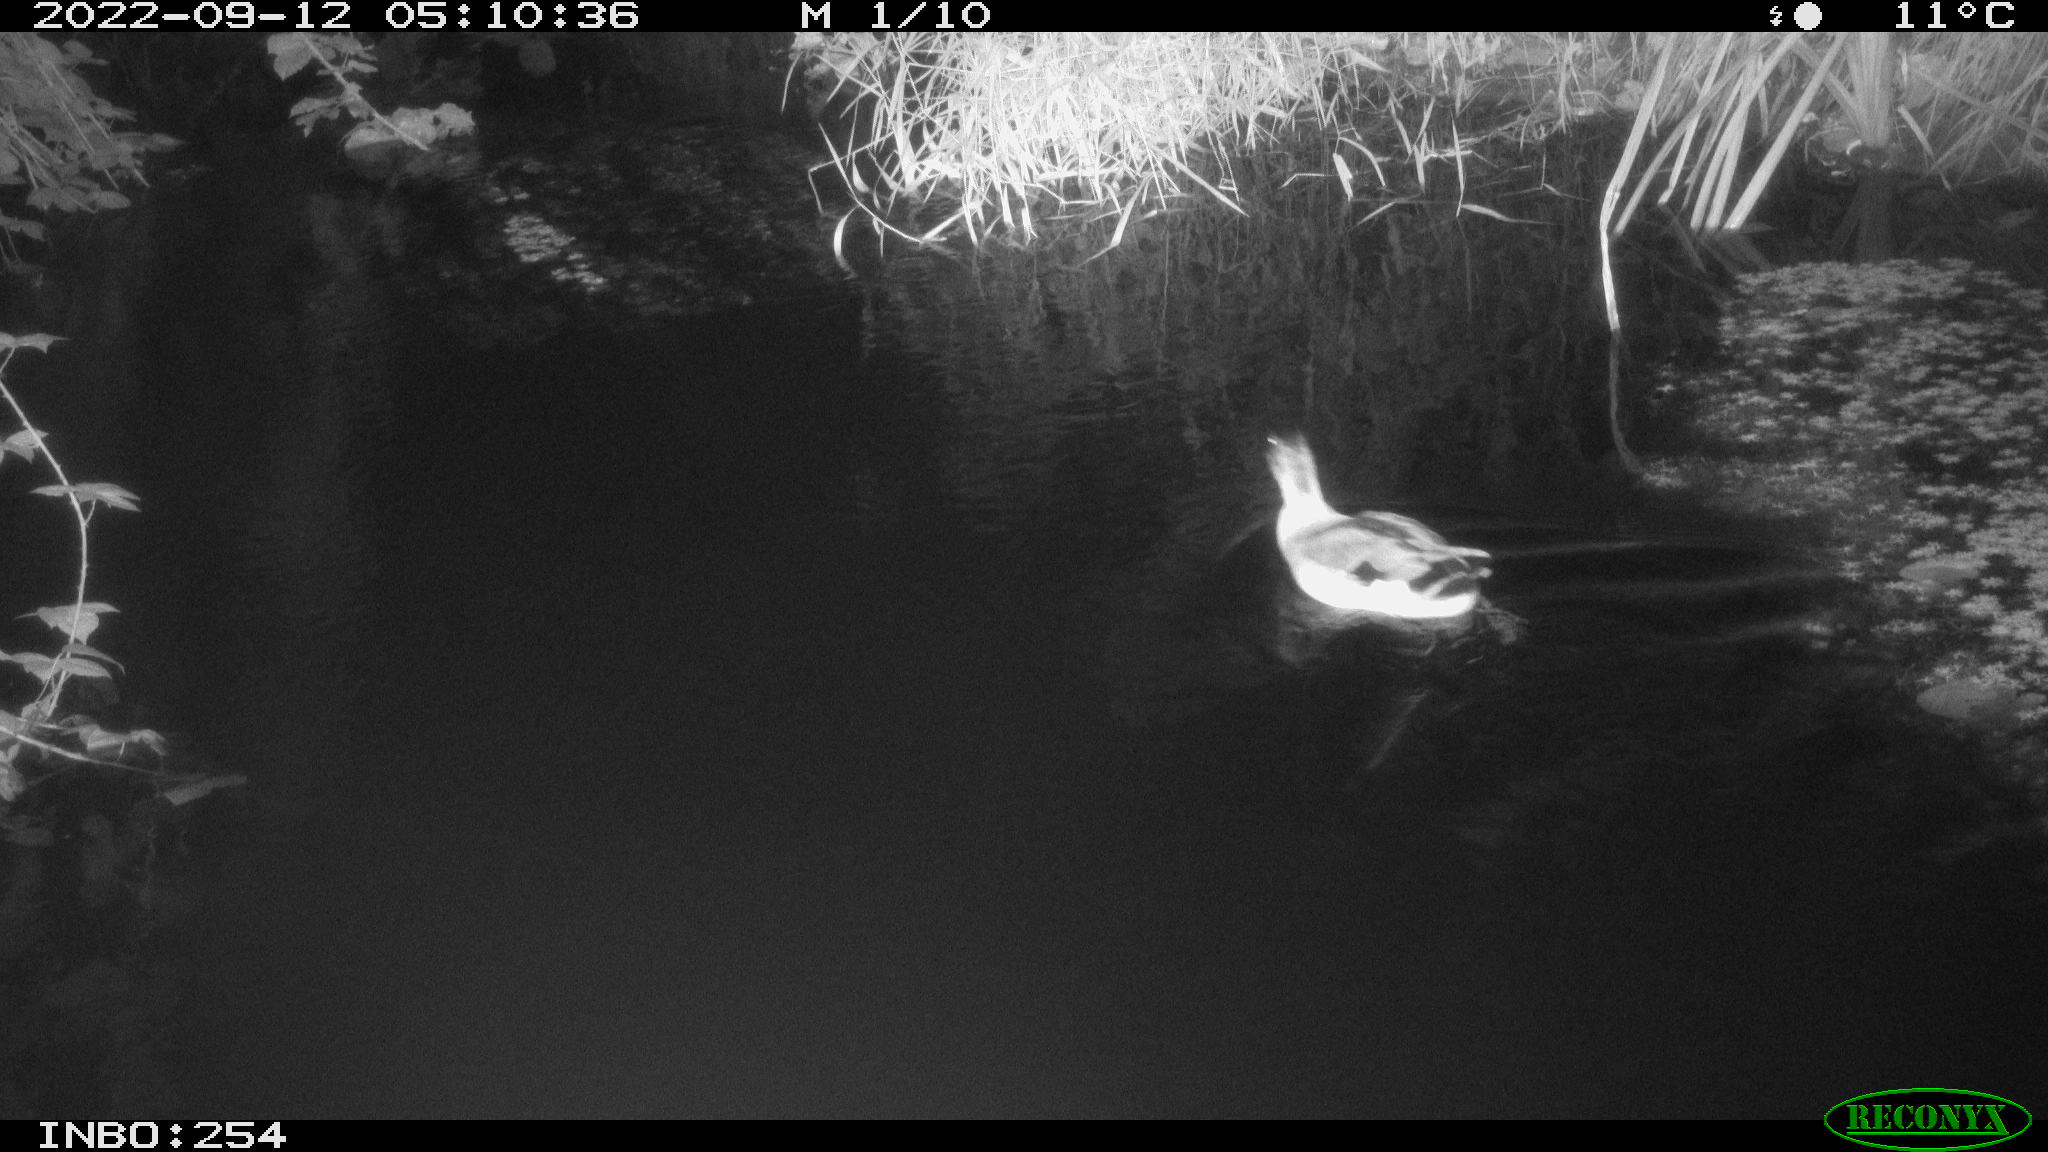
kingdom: Animalia
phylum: Chordata
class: Aves
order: Anseriformes
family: Anatidae
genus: Anas
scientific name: Anas
